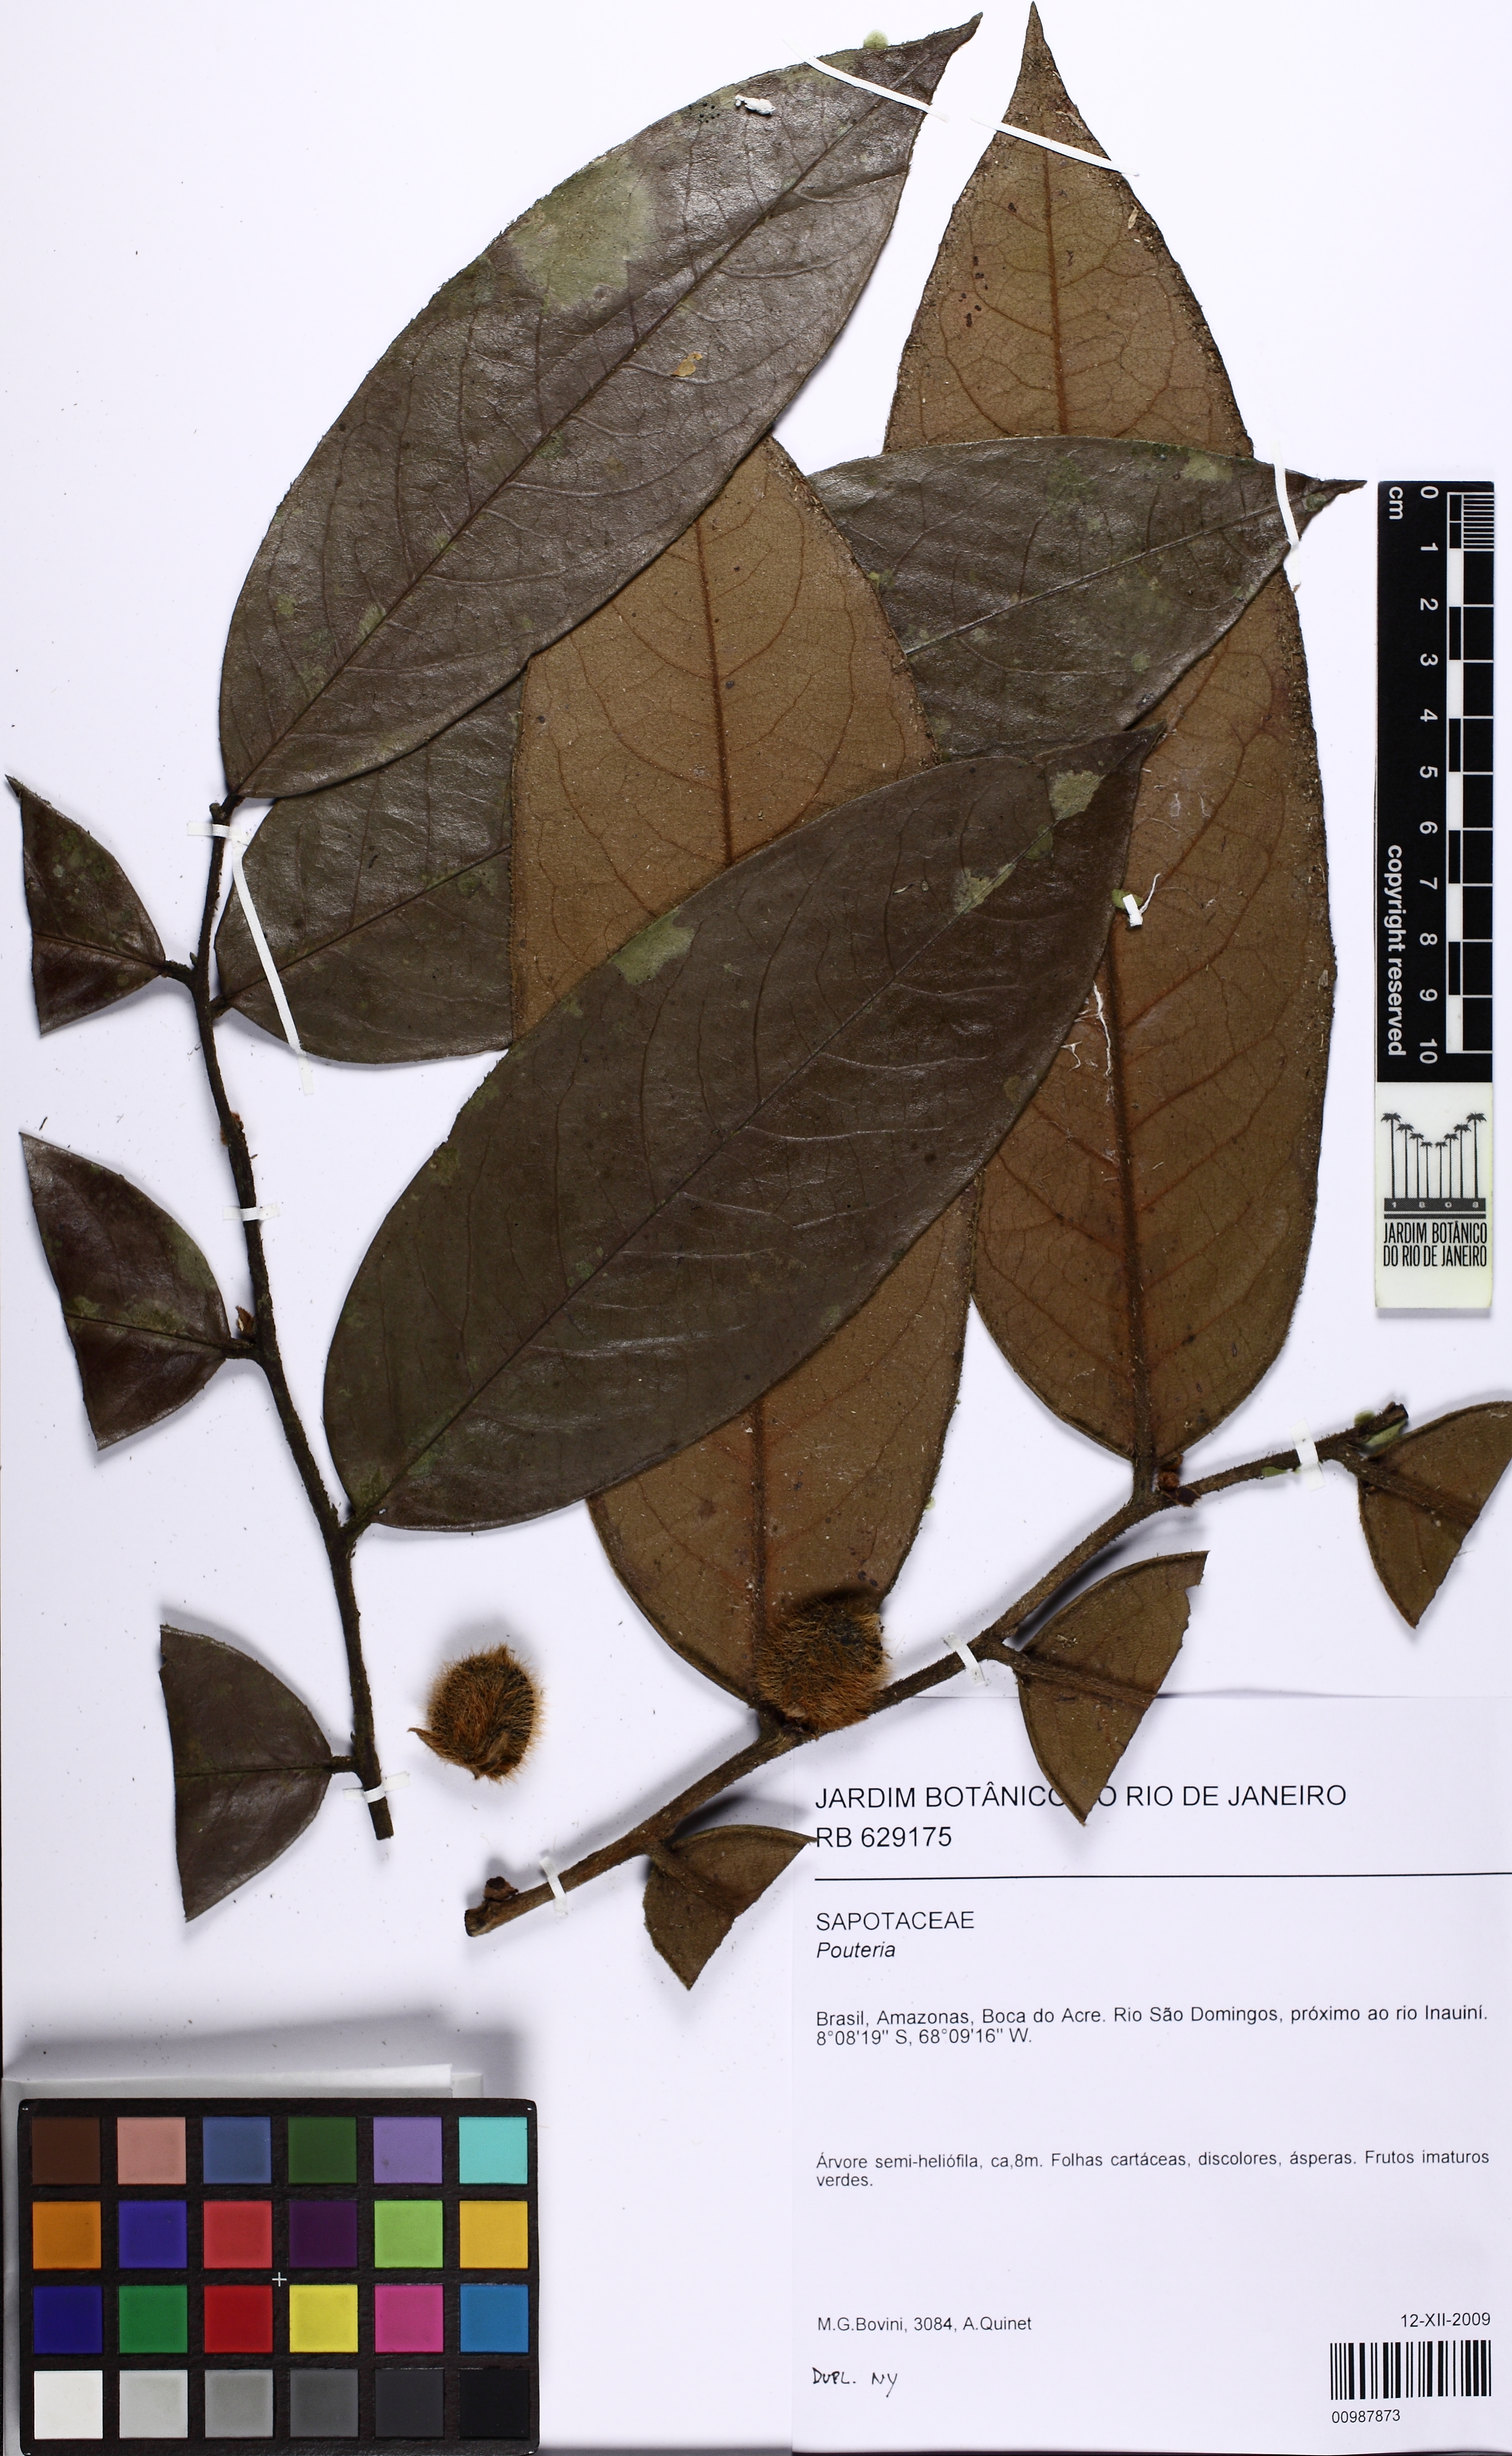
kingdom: Plantae
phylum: Tracheophyta
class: Magnoliopsida
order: Ericales
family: Ebenaceae
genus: Diospyros
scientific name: Diospyros
